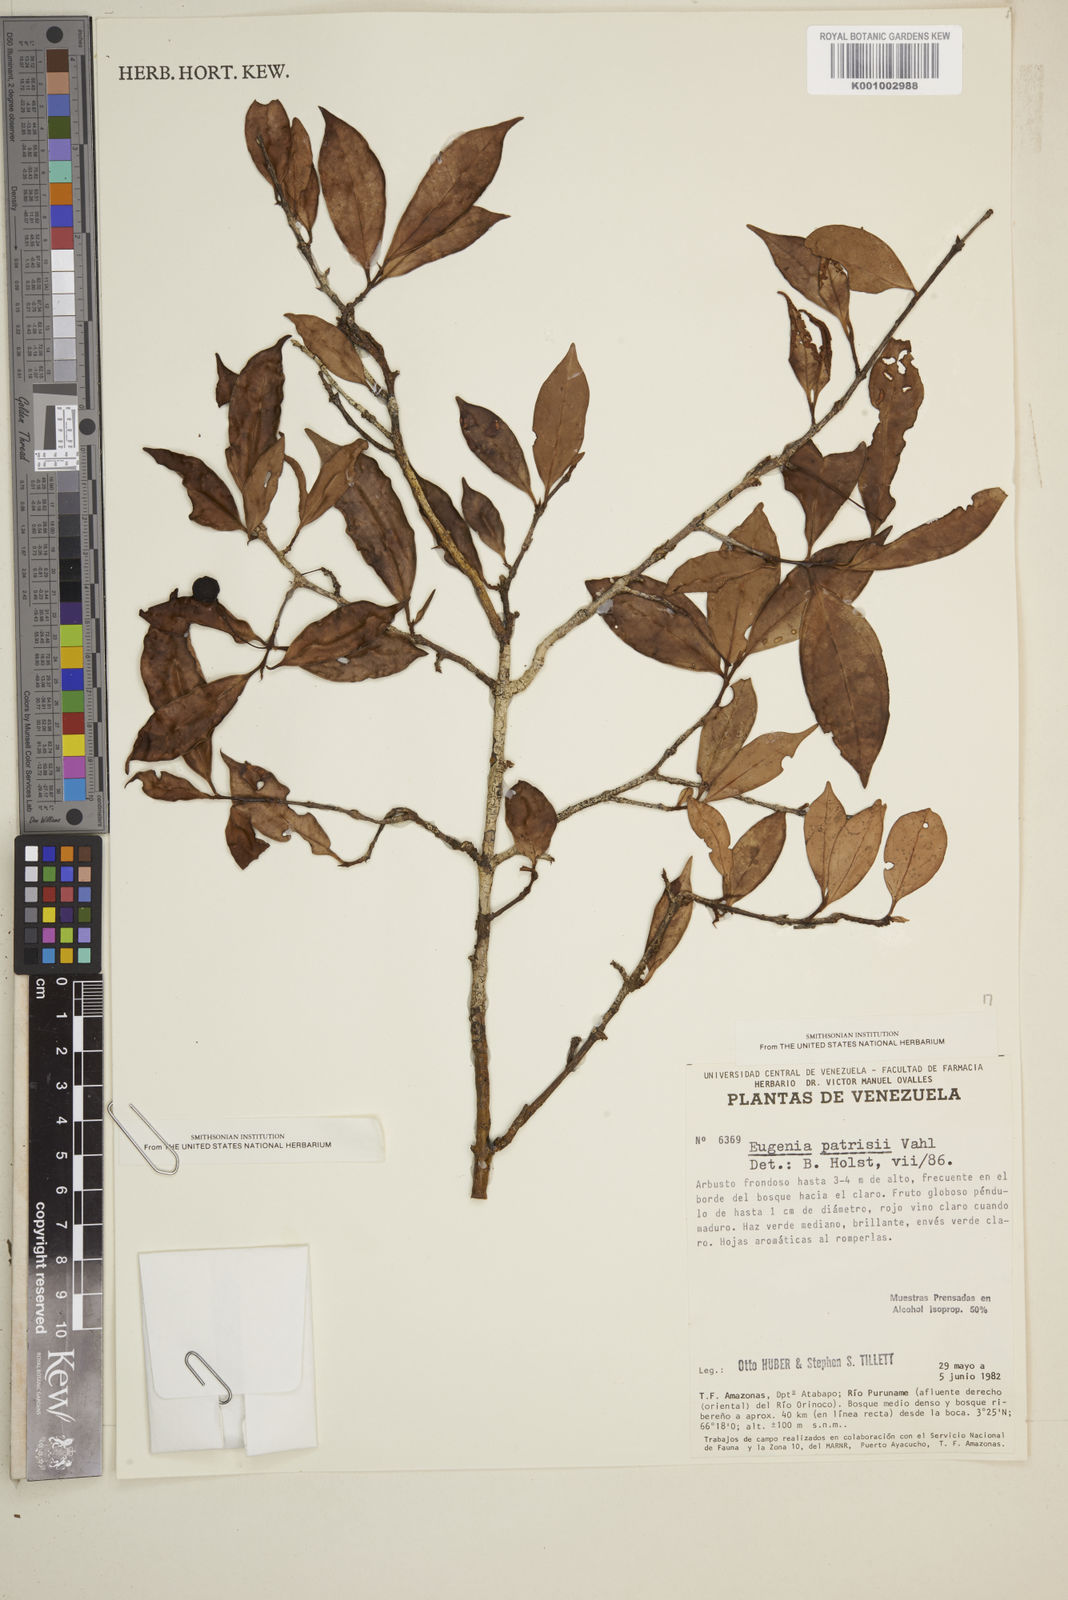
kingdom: Plantae
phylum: Tracheophyta
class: Magnoliopsida
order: Myrtales
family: Myrtaceae
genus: Eugenia
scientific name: Eugenia patrisii
